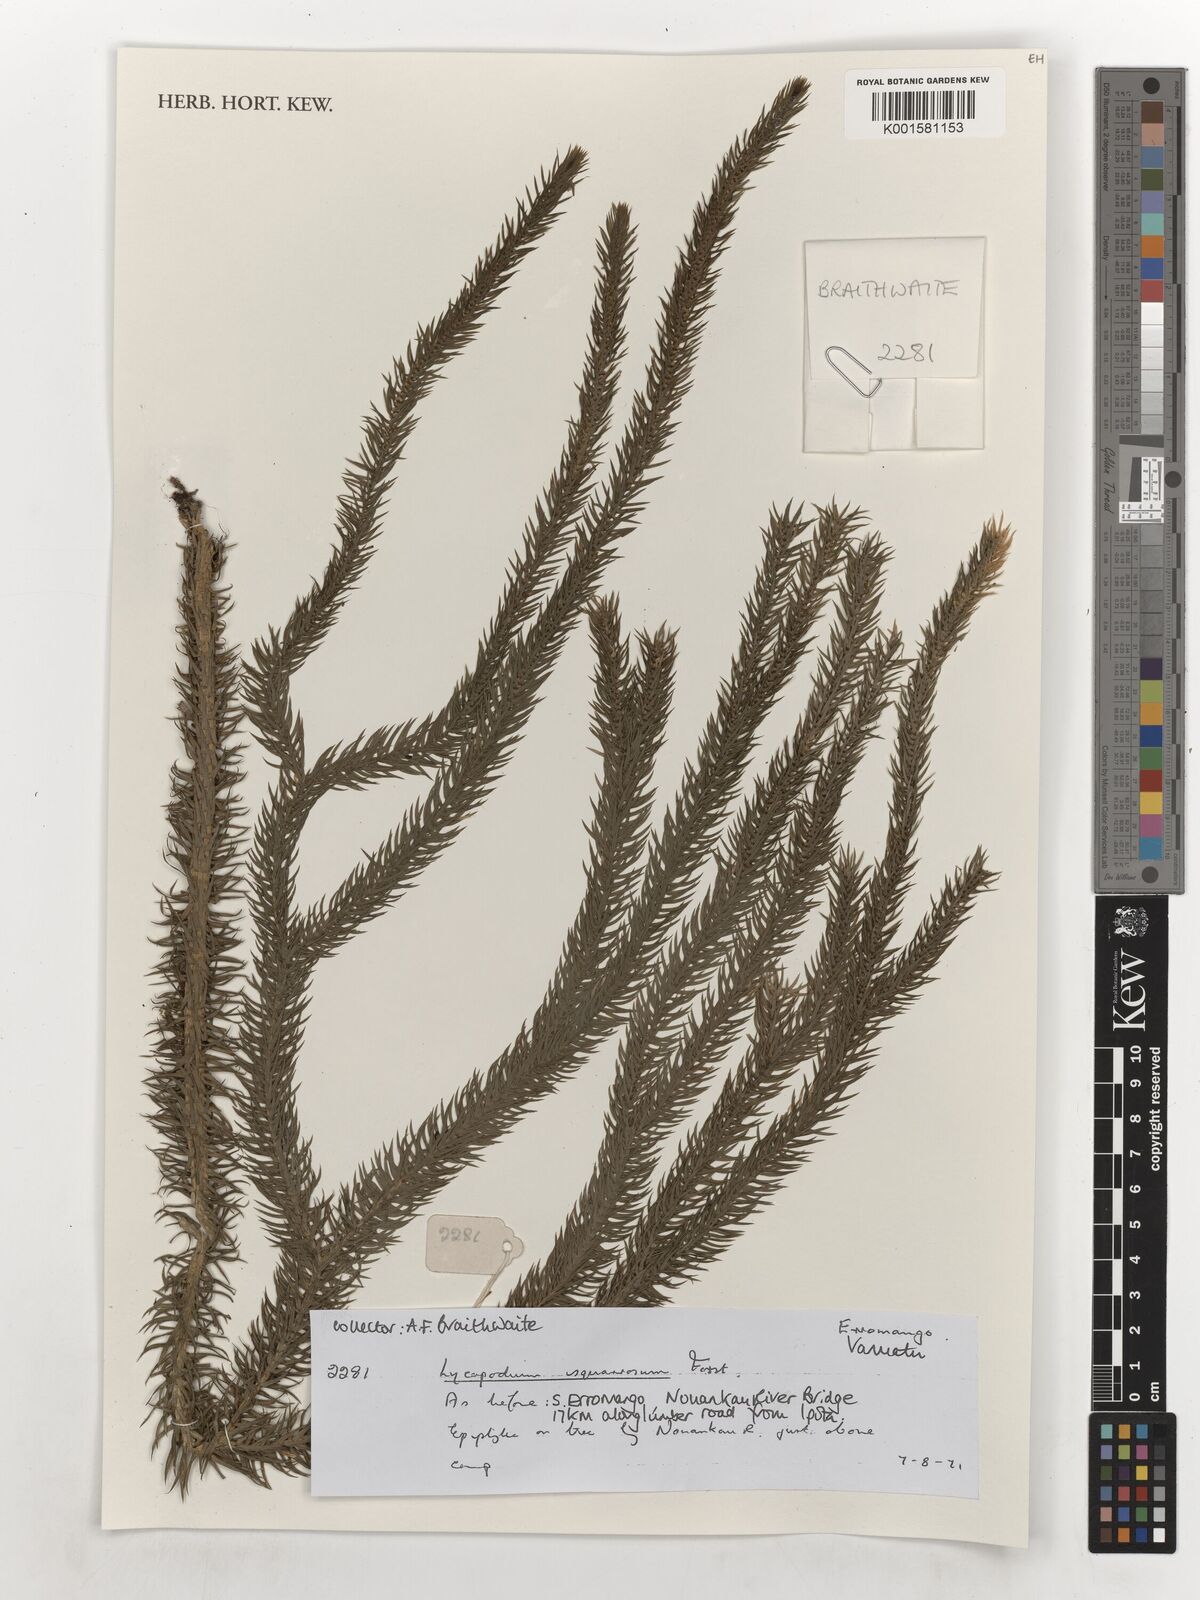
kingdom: Plantae
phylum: Tracheophyta
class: Lycopodiopsida
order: Lycopodiales
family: Lycopodiaceae
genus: Phlegmariurus
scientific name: Phlegmariurus squarrosus
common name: Rock tassel-fern
